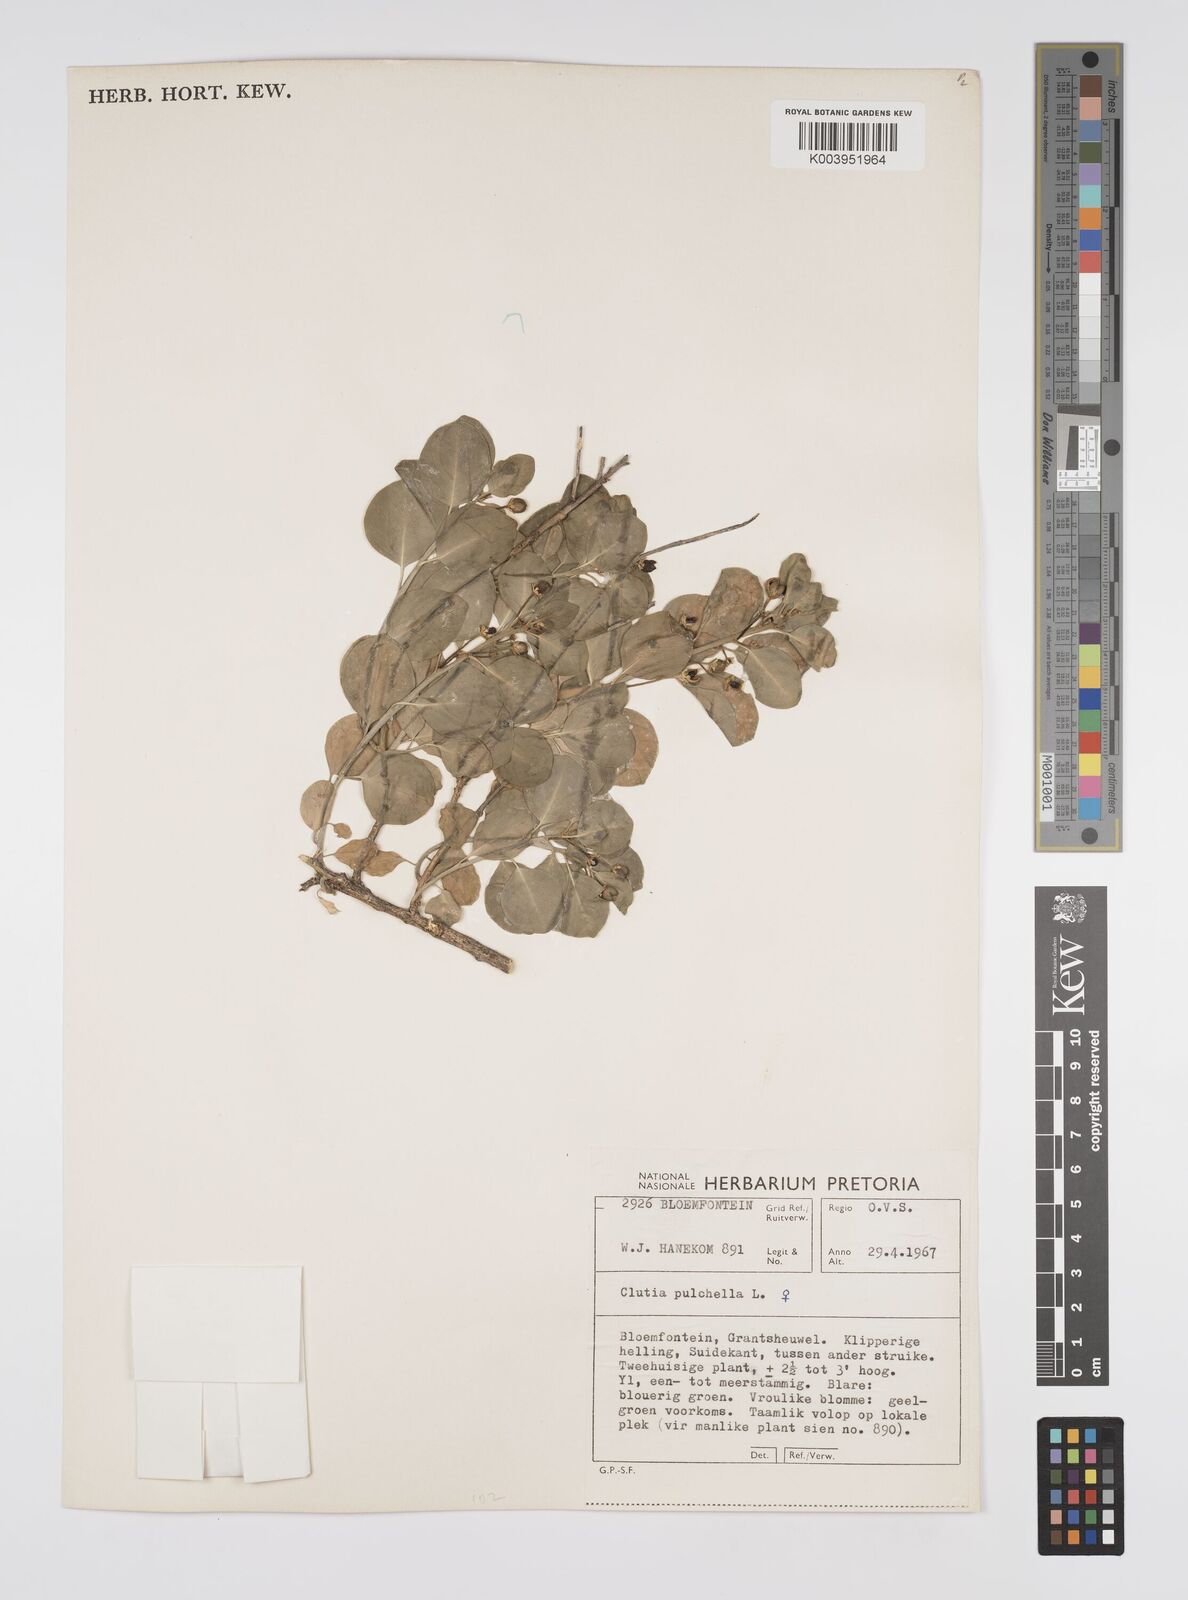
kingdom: Plantae
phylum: Tracheophyta
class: Magnoliopsida
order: Malpighiales
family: Peraceae
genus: Clutia
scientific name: Clutia pulchella
